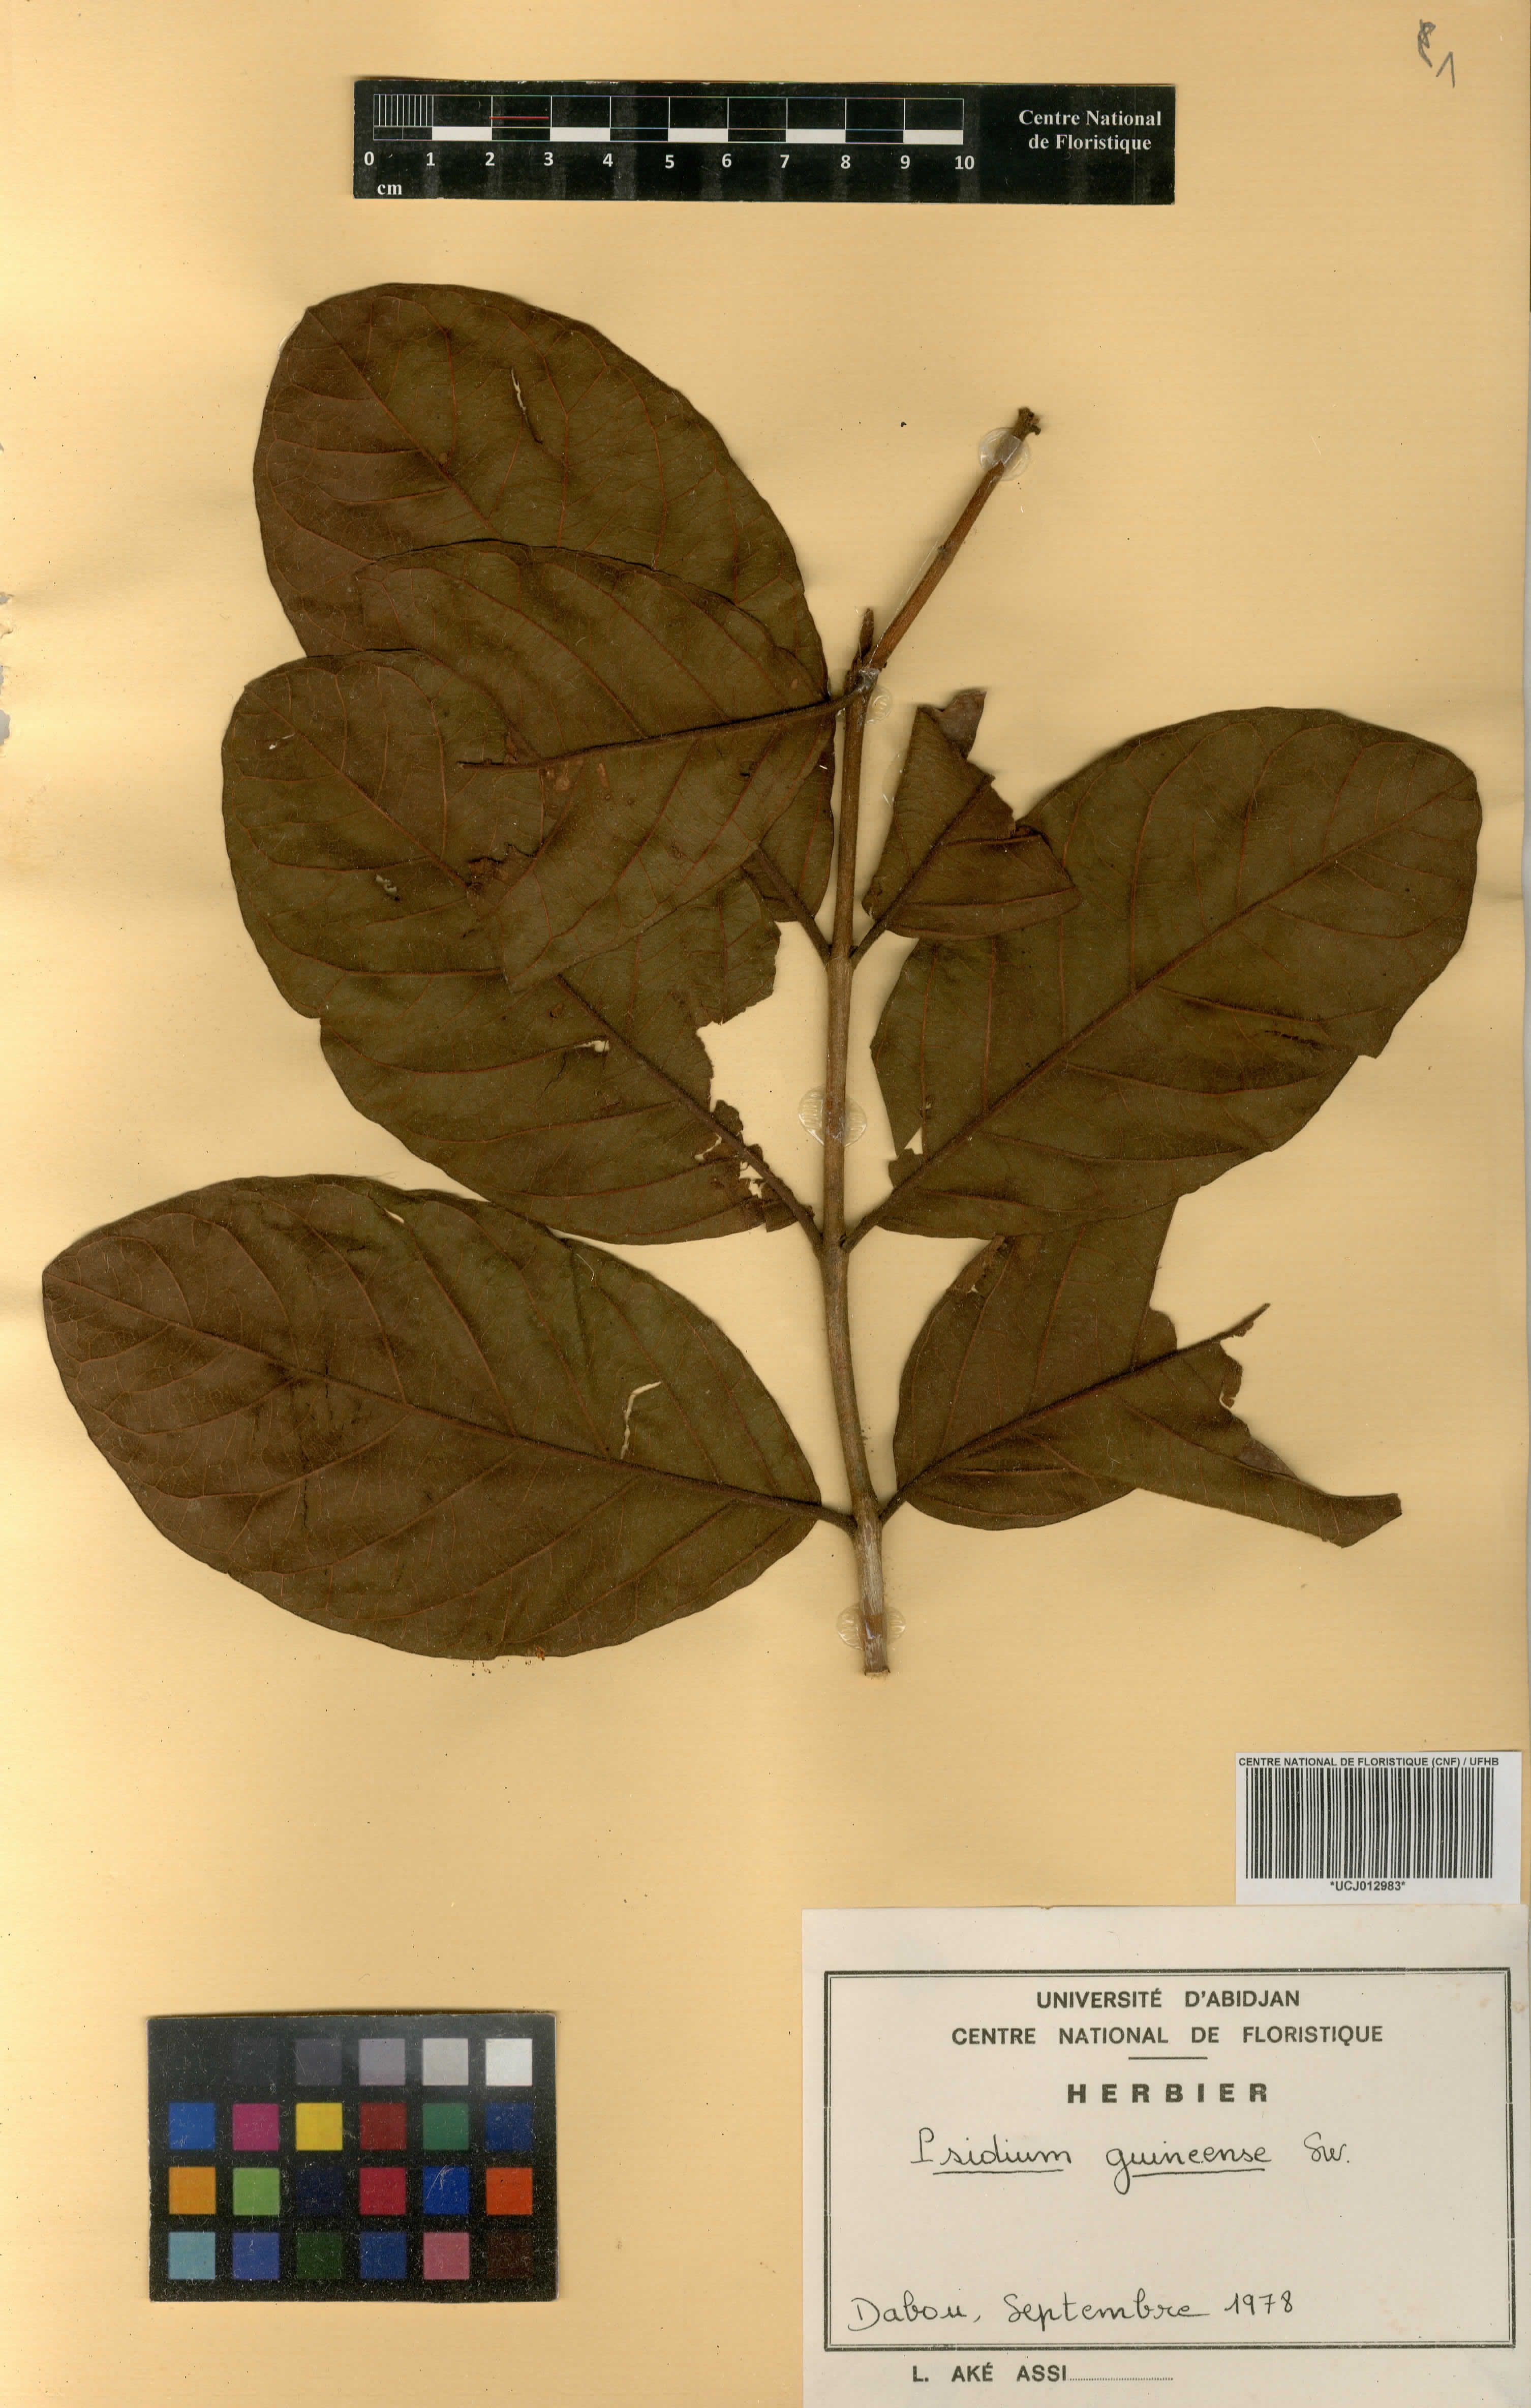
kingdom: Plantae
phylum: Tracheophyta
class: Magnoliopsida
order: Myrtales
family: Myrtaceae
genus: Psidium
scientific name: Psidium guineense
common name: Brazilian guava
